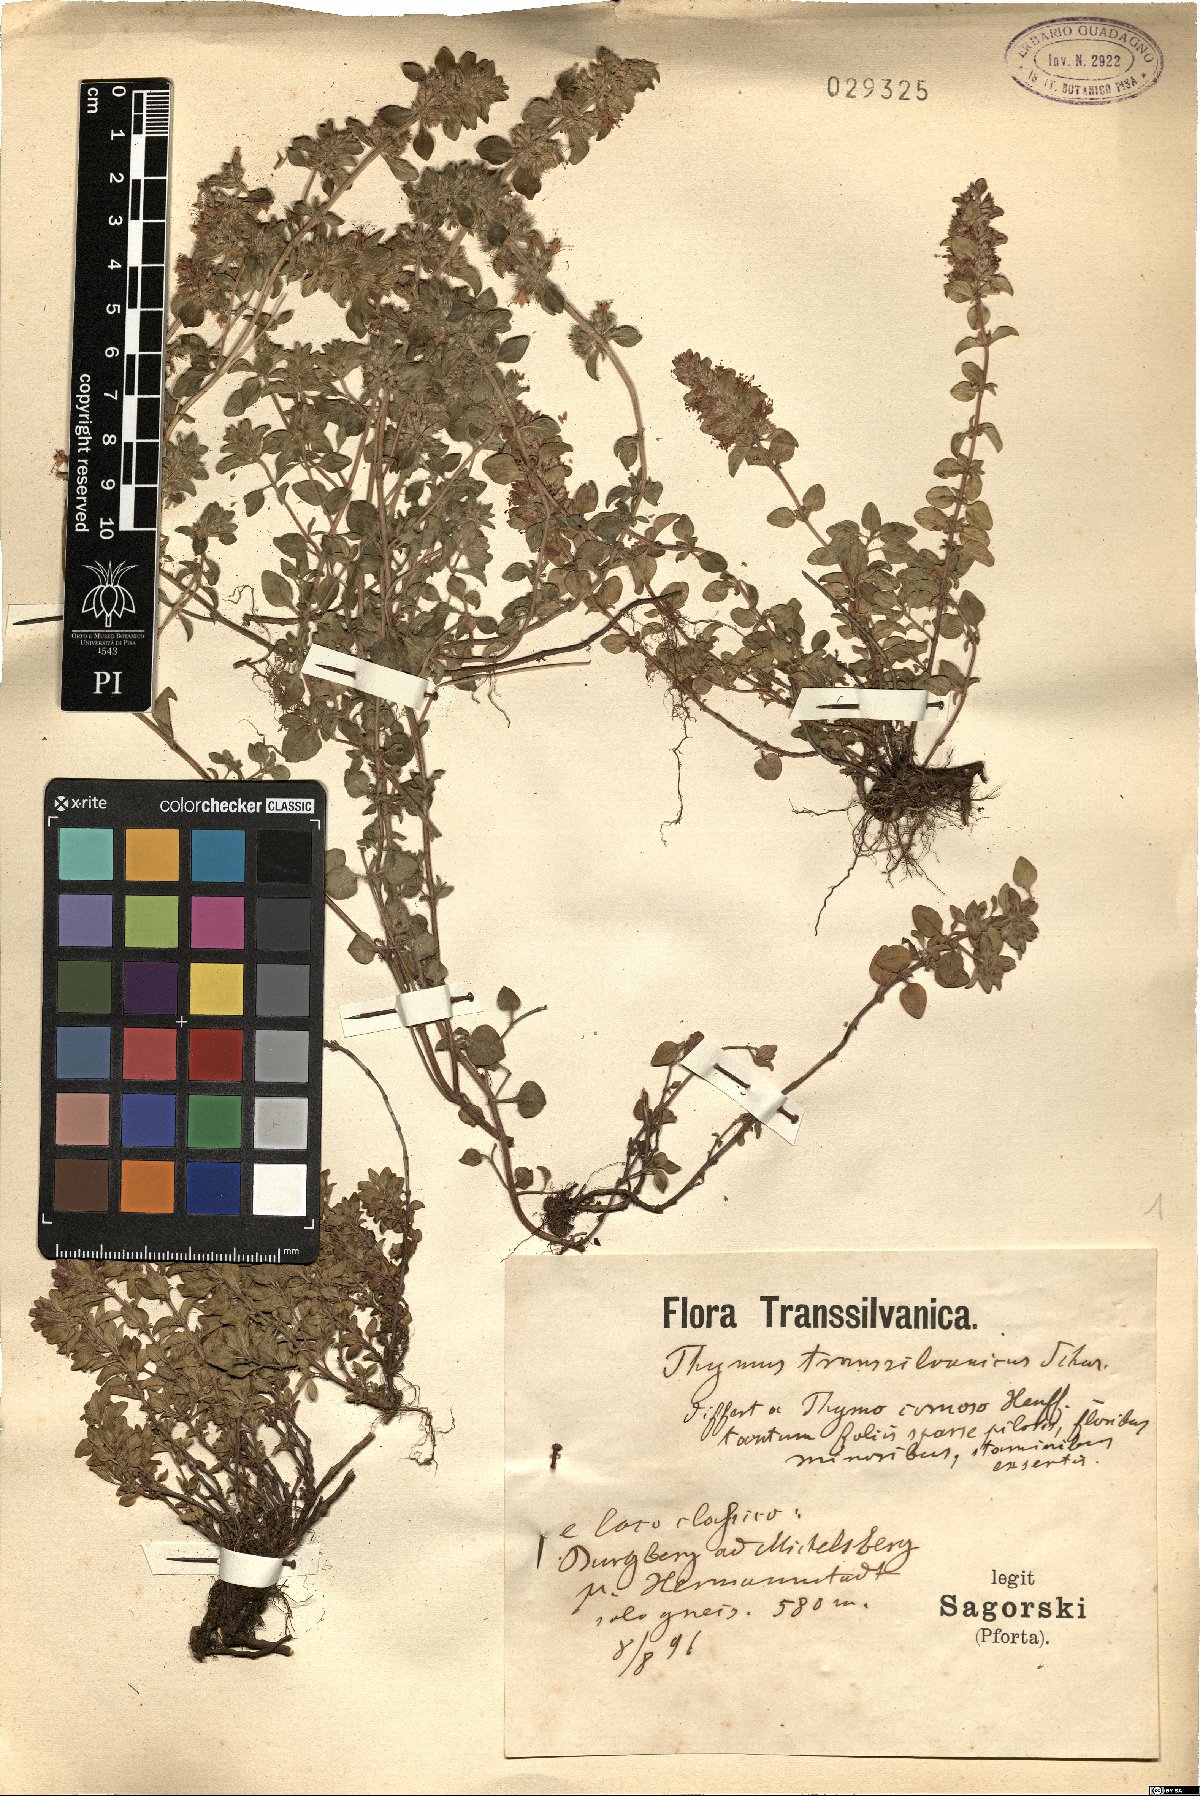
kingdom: Plantae
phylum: Tracheophyta
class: Magnoliopsida
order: Lamiales
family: Lamiaceae
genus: Thymus
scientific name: Thymus comosus
